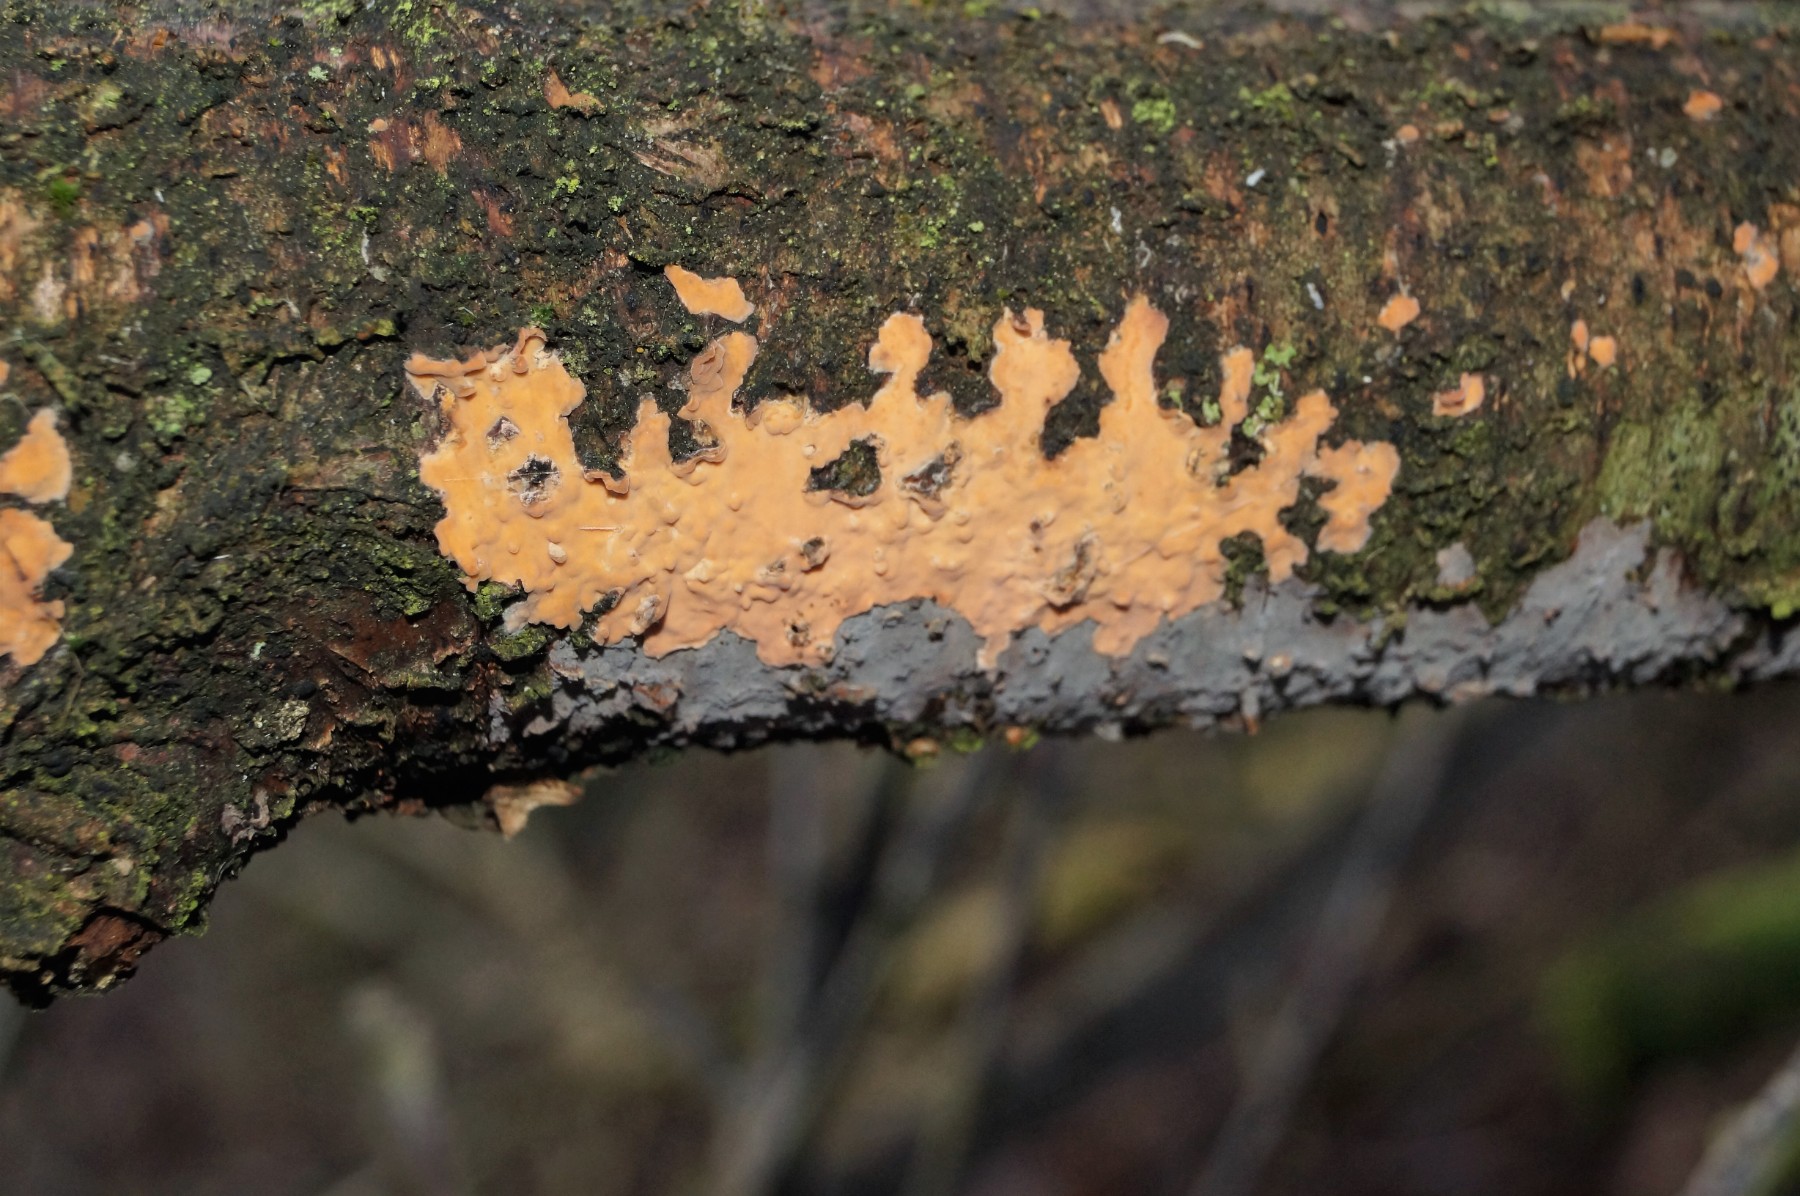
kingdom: Fungi
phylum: Basidiomycota
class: Agaricomycetes
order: Russulales
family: Peniophoraceae
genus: Peniophora
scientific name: Peniophora incarnata
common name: laksefarvet voksskind
